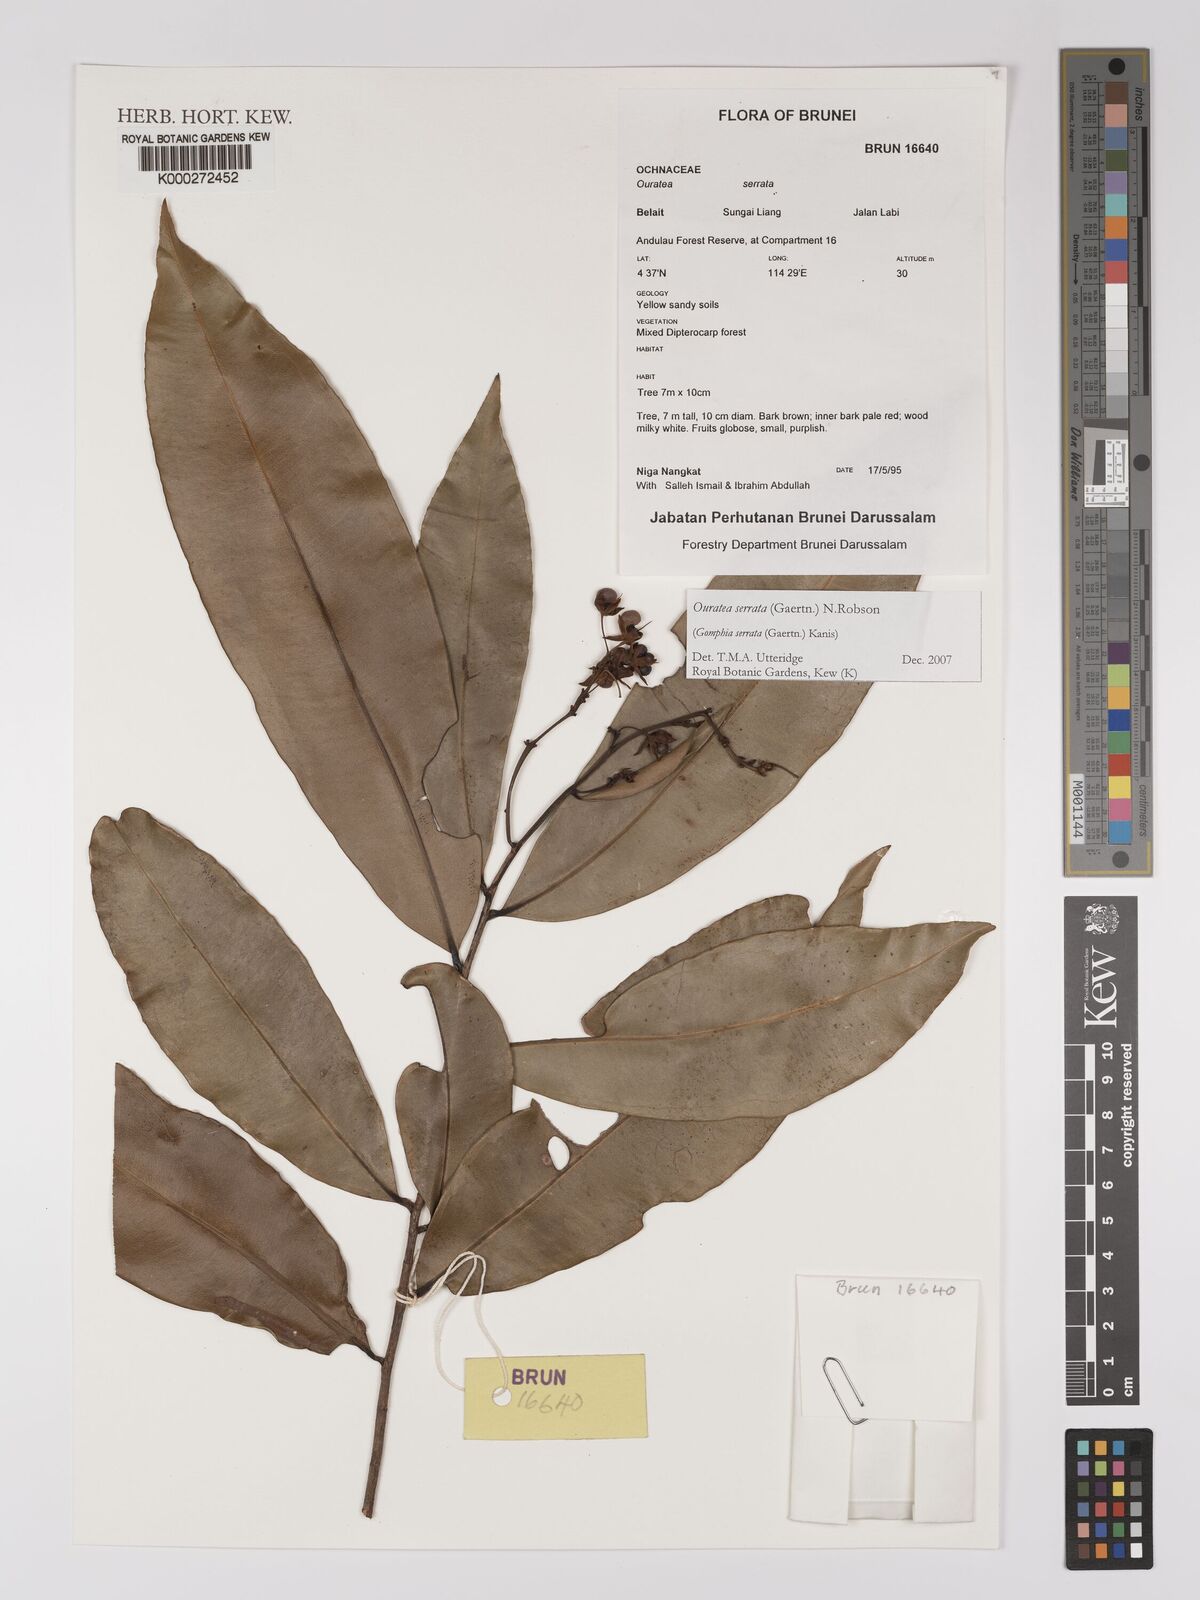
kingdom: Plantae
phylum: Tracheophyta
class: Magnoliopsida
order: Malpighiales
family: Ochnaceae
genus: Gomphia
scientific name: Gomphia serrata
